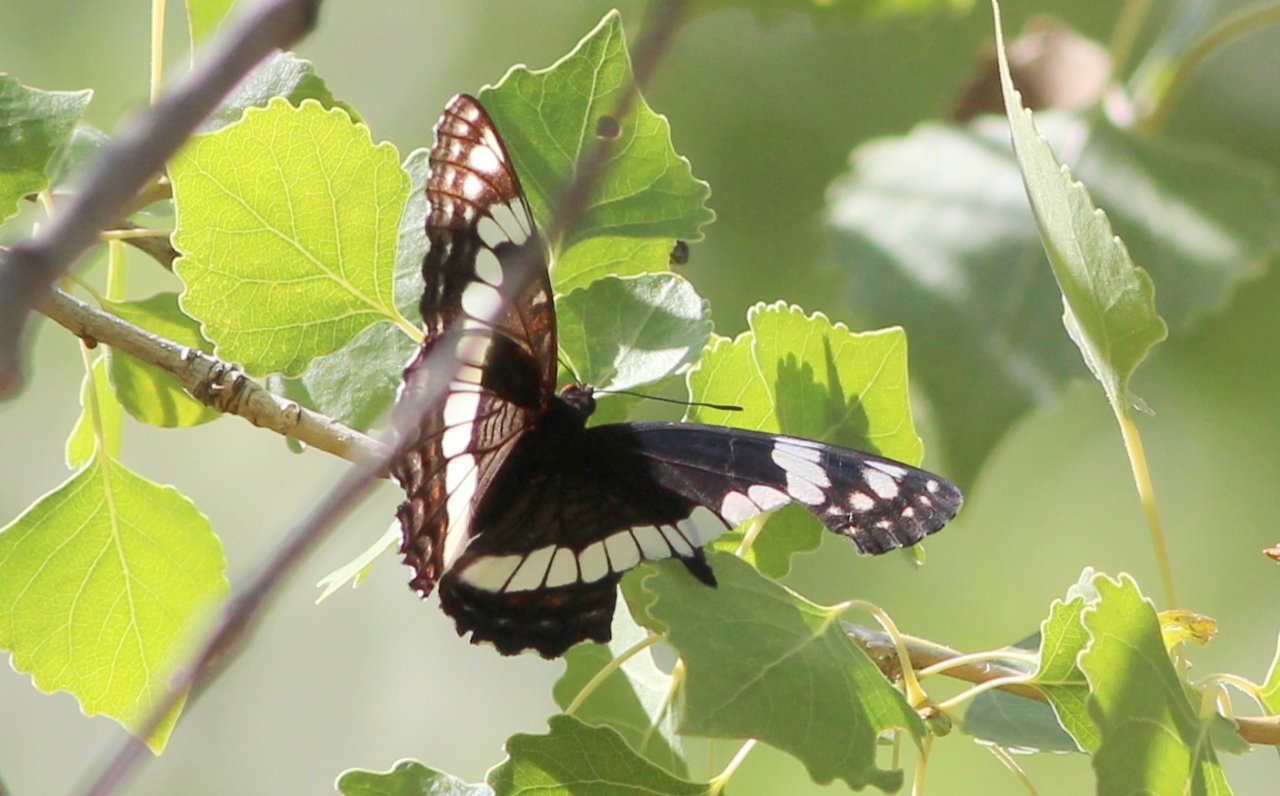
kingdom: Animalia
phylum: Arthropoda
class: Insecta
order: Lepidoptera
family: Nymphalidae
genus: Limenitis
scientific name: Limenitis weidemeyerii
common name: Weidemeyer's Admiral
